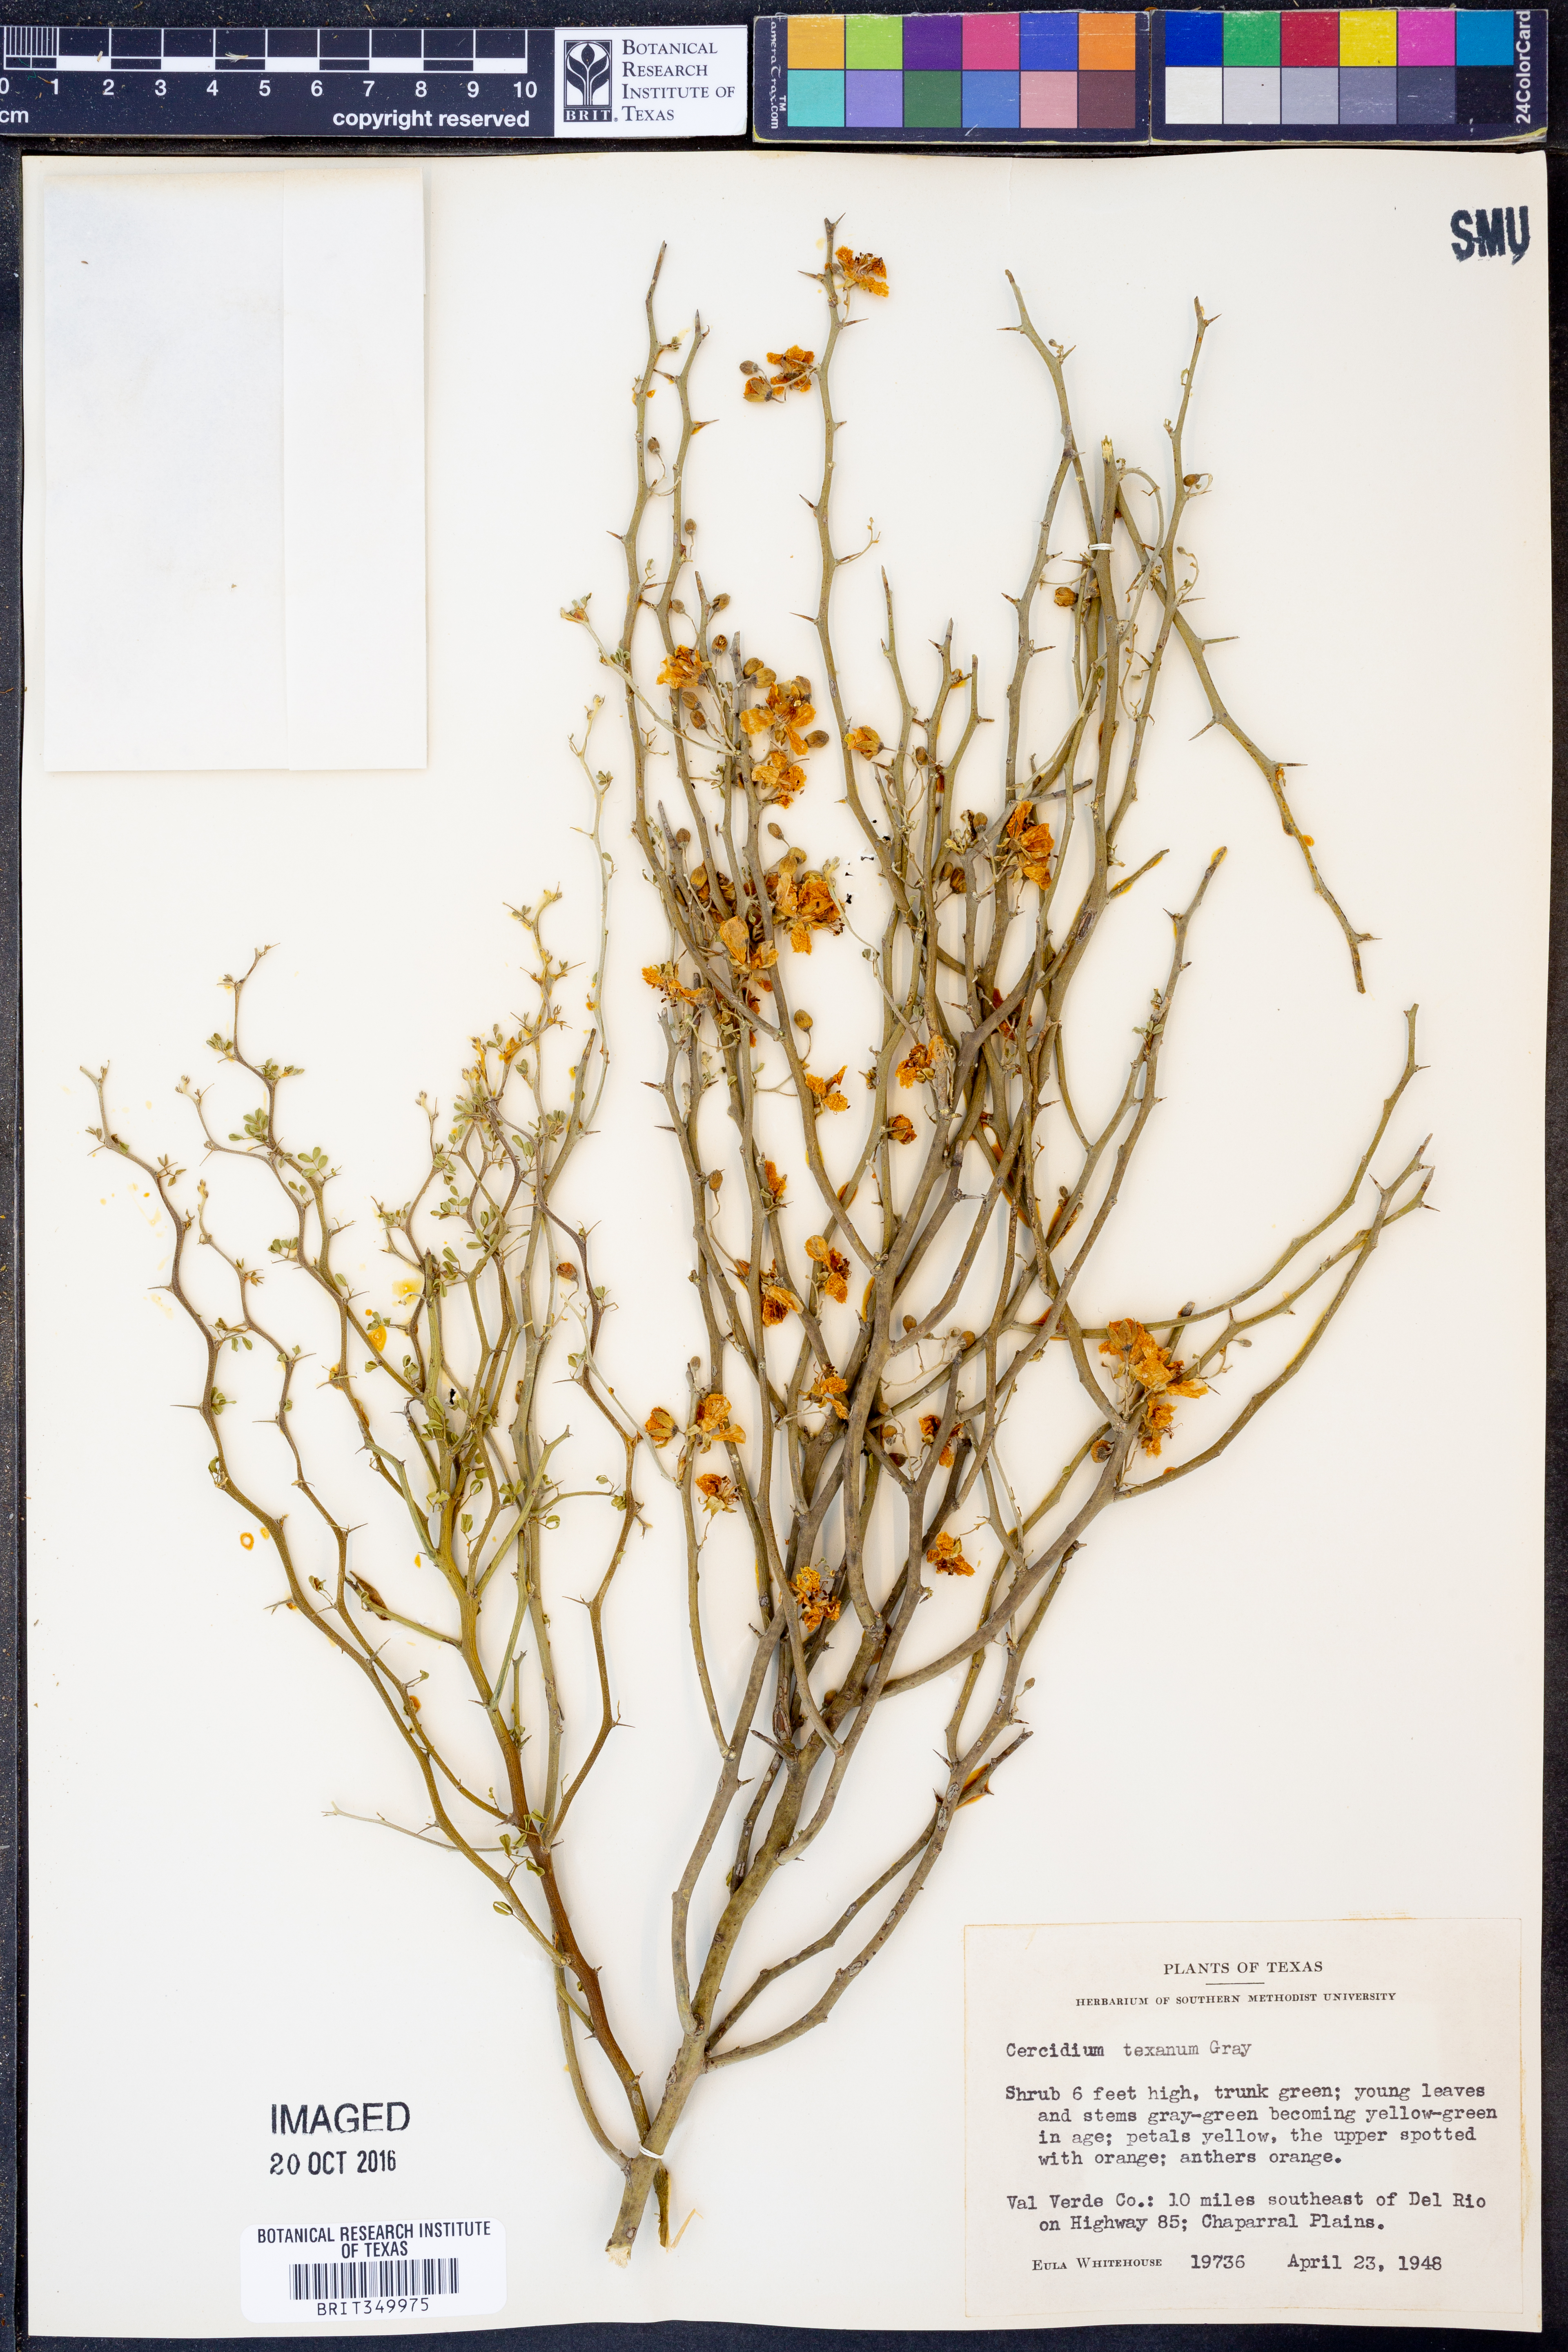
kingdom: Plantae
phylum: Tracheophyta
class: Magnoliopsida
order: Fabales
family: Fabaceae
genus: Parkinsonia
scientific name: Parkinsonia texana
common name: Texas paloverde
